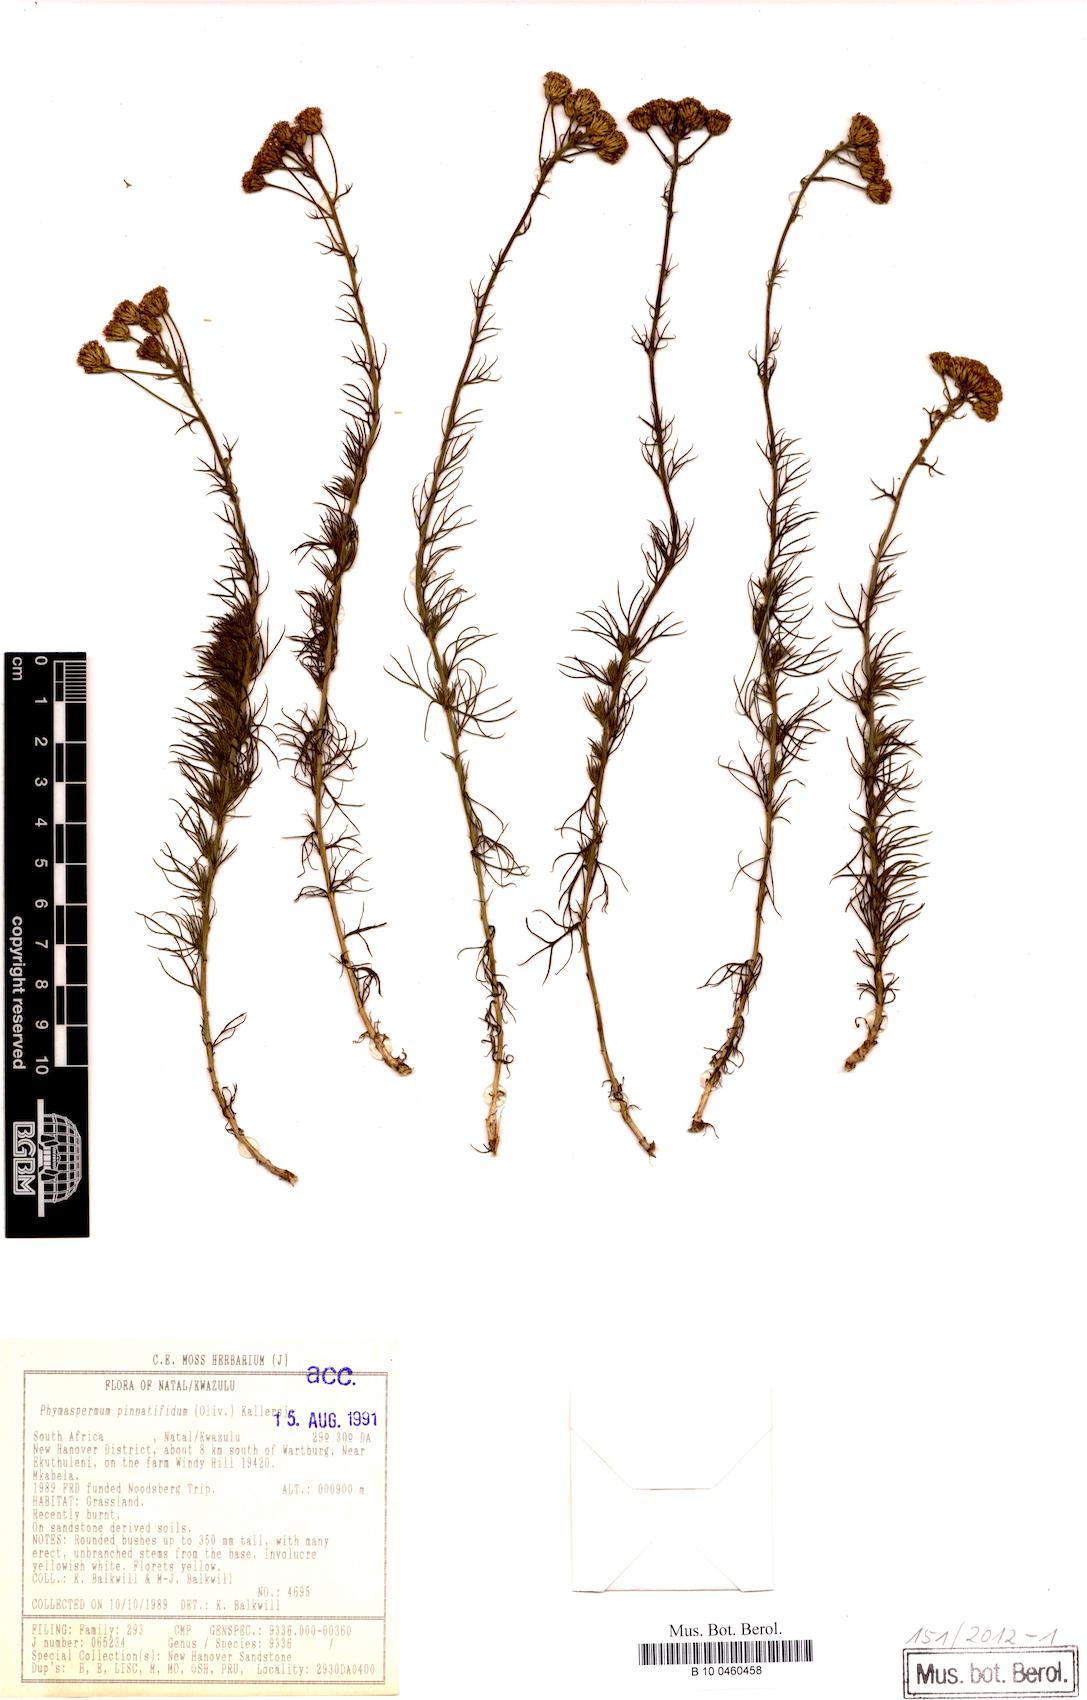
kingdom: Plantae
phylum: Tracheophyta
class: Magnoliopsida
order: Asterales
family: Asteraceae
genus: Phymaspermum
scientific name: Phymaspermum pinnatifidum
